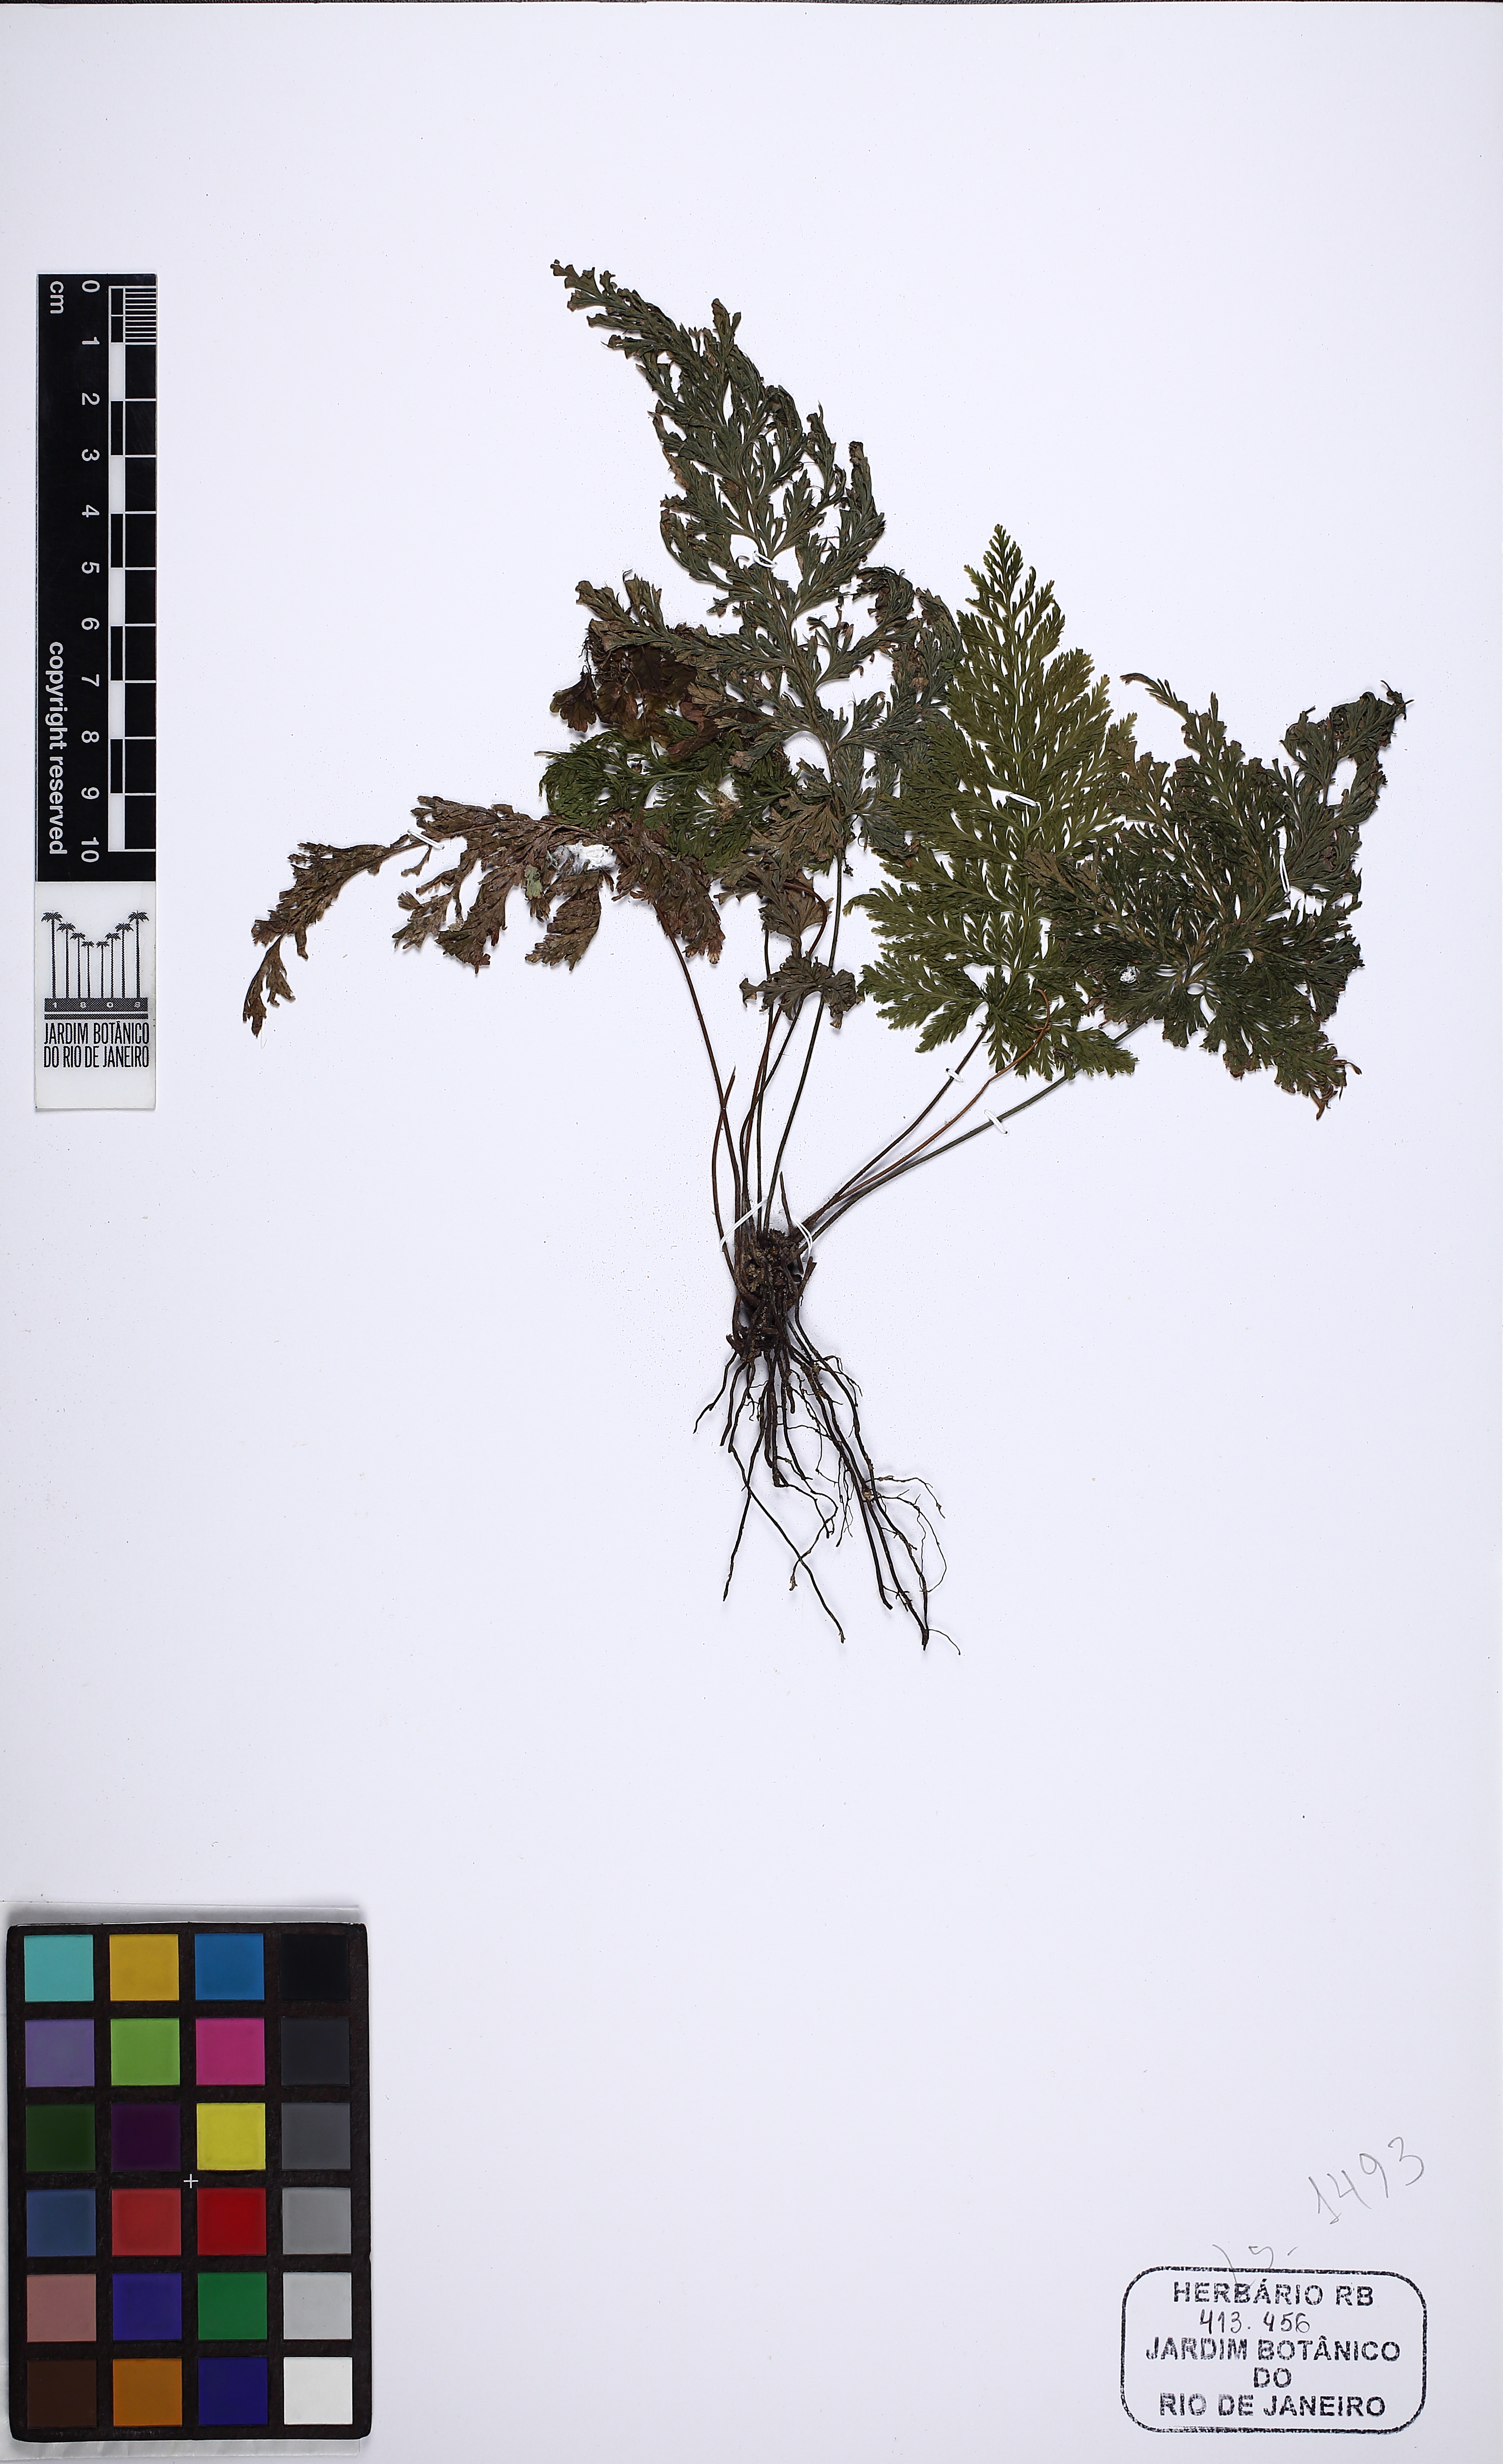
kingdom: Plantae
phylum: Tracheophyta
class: Polypodiopsida
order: Hymenophyllales
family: Hymenophyllaceae
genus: Abrodictyum
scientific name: Abrodictyum rigidum
